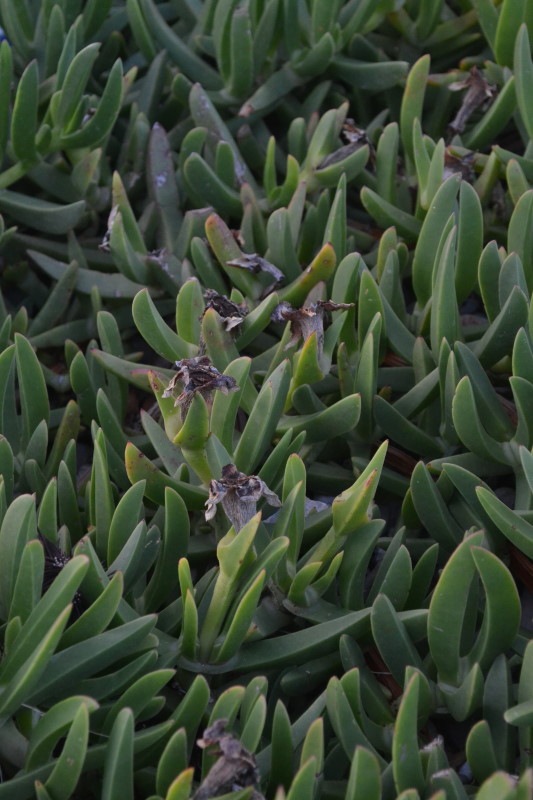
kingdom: Plantae
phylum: Tracheophyta
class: Magnoliopsida
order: Caryophyllales
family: Aizoaceae
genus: Carpobrotus
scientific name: Carpobrotus glaucescens
